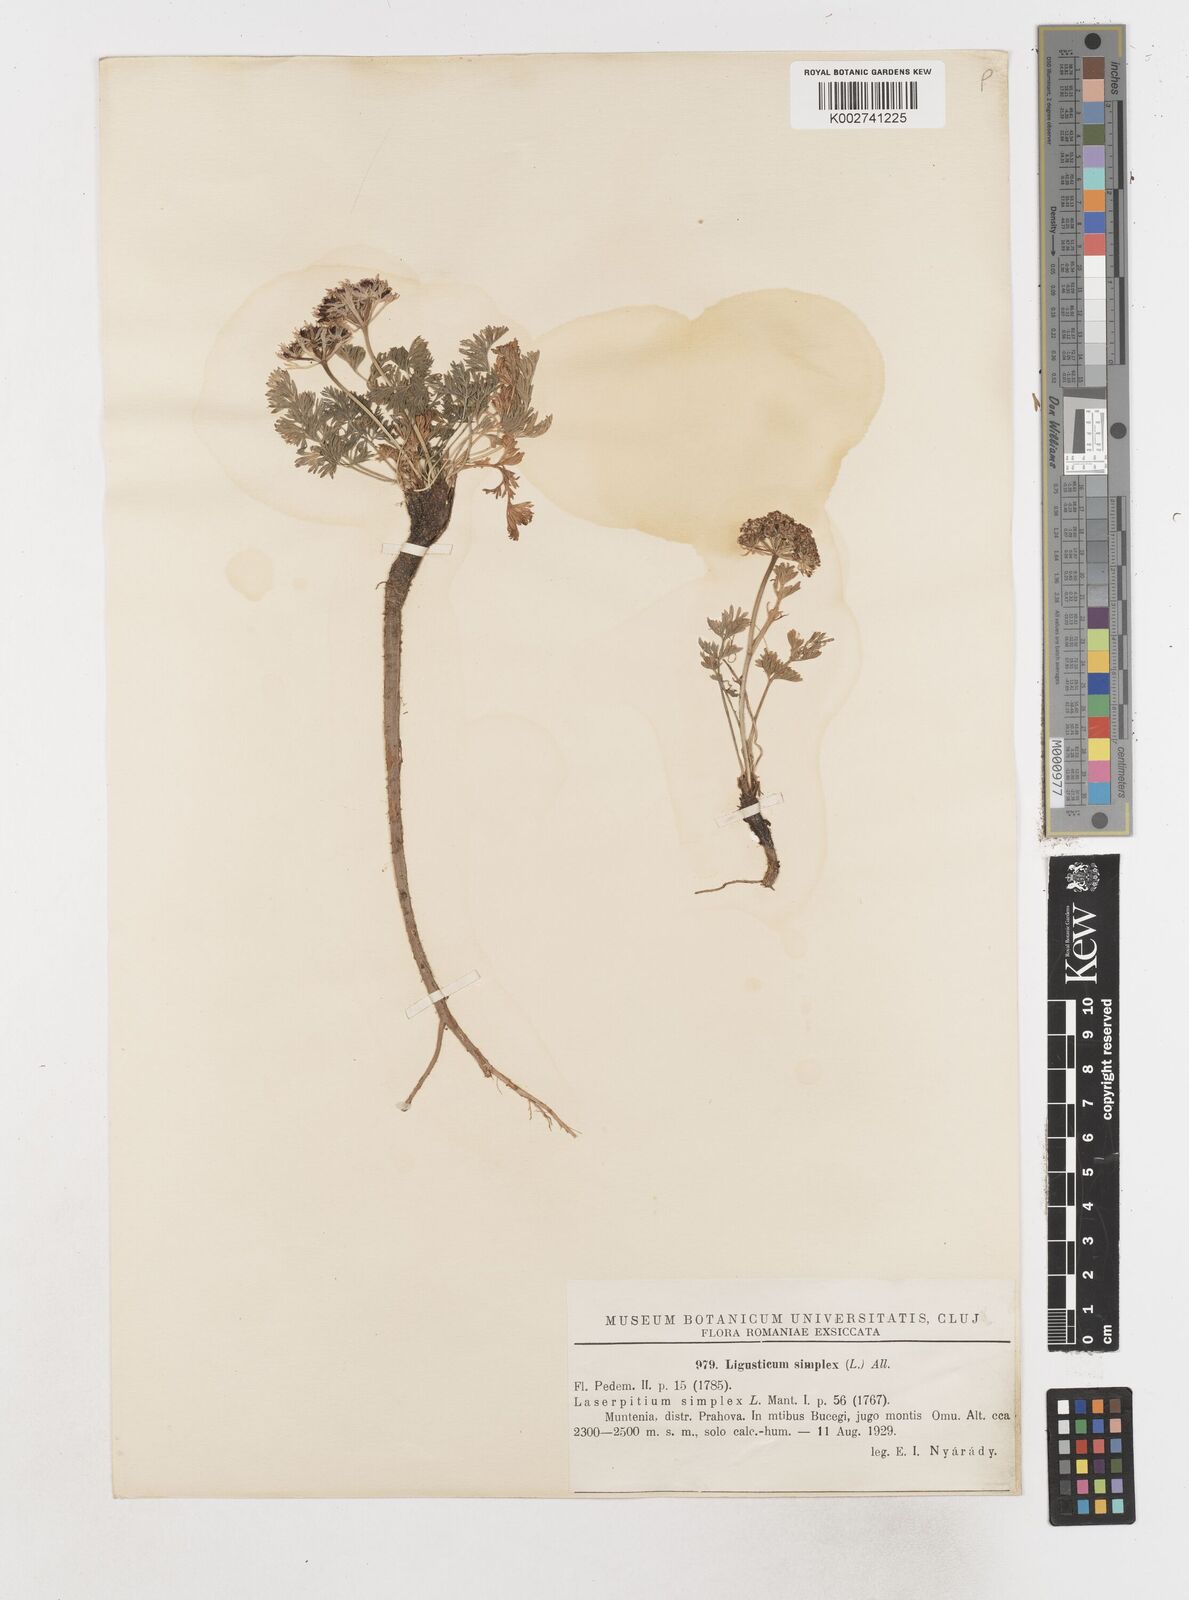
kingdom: Plantae
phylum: Tracheophyta
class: Magnoliopsida
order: Apiales
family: Apiaceae
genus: Pachypleurum
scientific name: Pachypleurum mutellinoides
